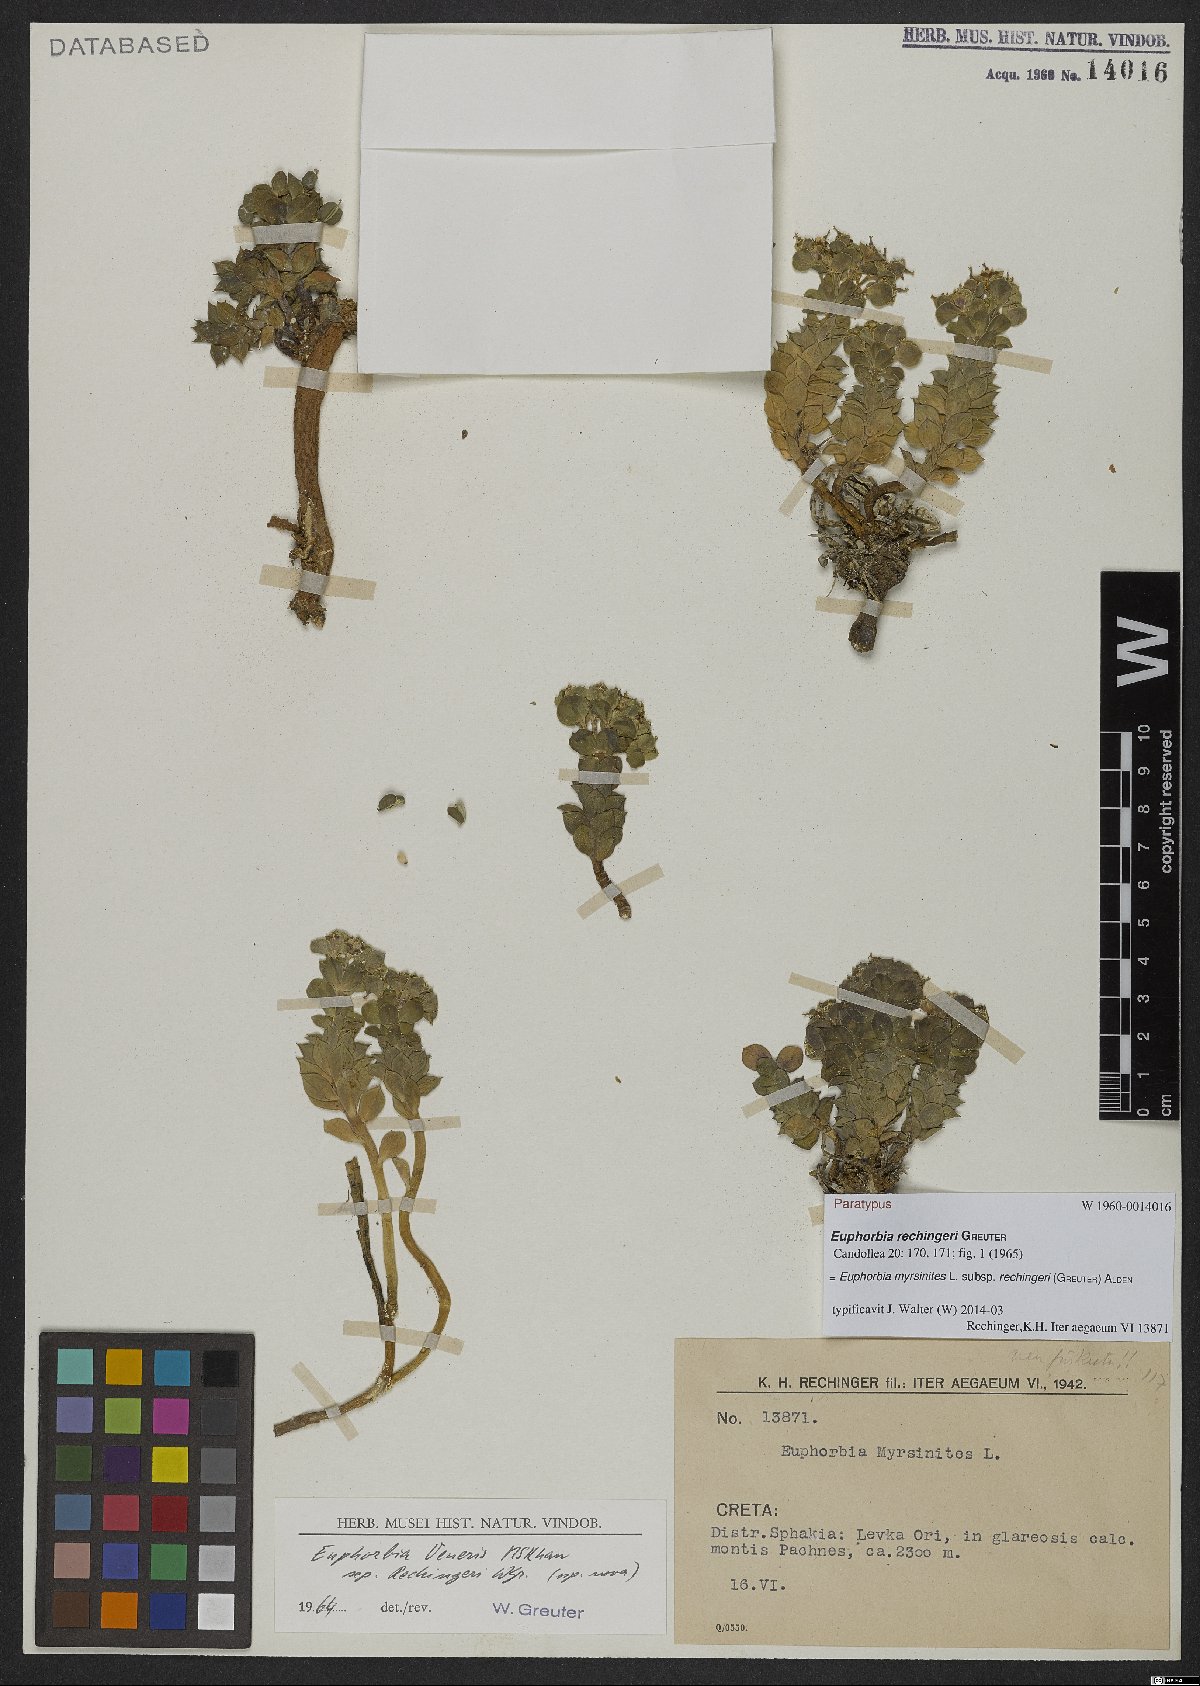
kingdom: Plantae
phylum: Tracheophyta
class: Magnoliopsida
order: Malpighiales
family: Euphorbiaceae
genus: Euphorbia
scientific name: Euphorbia myrsinites
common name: Myrtle spurge
